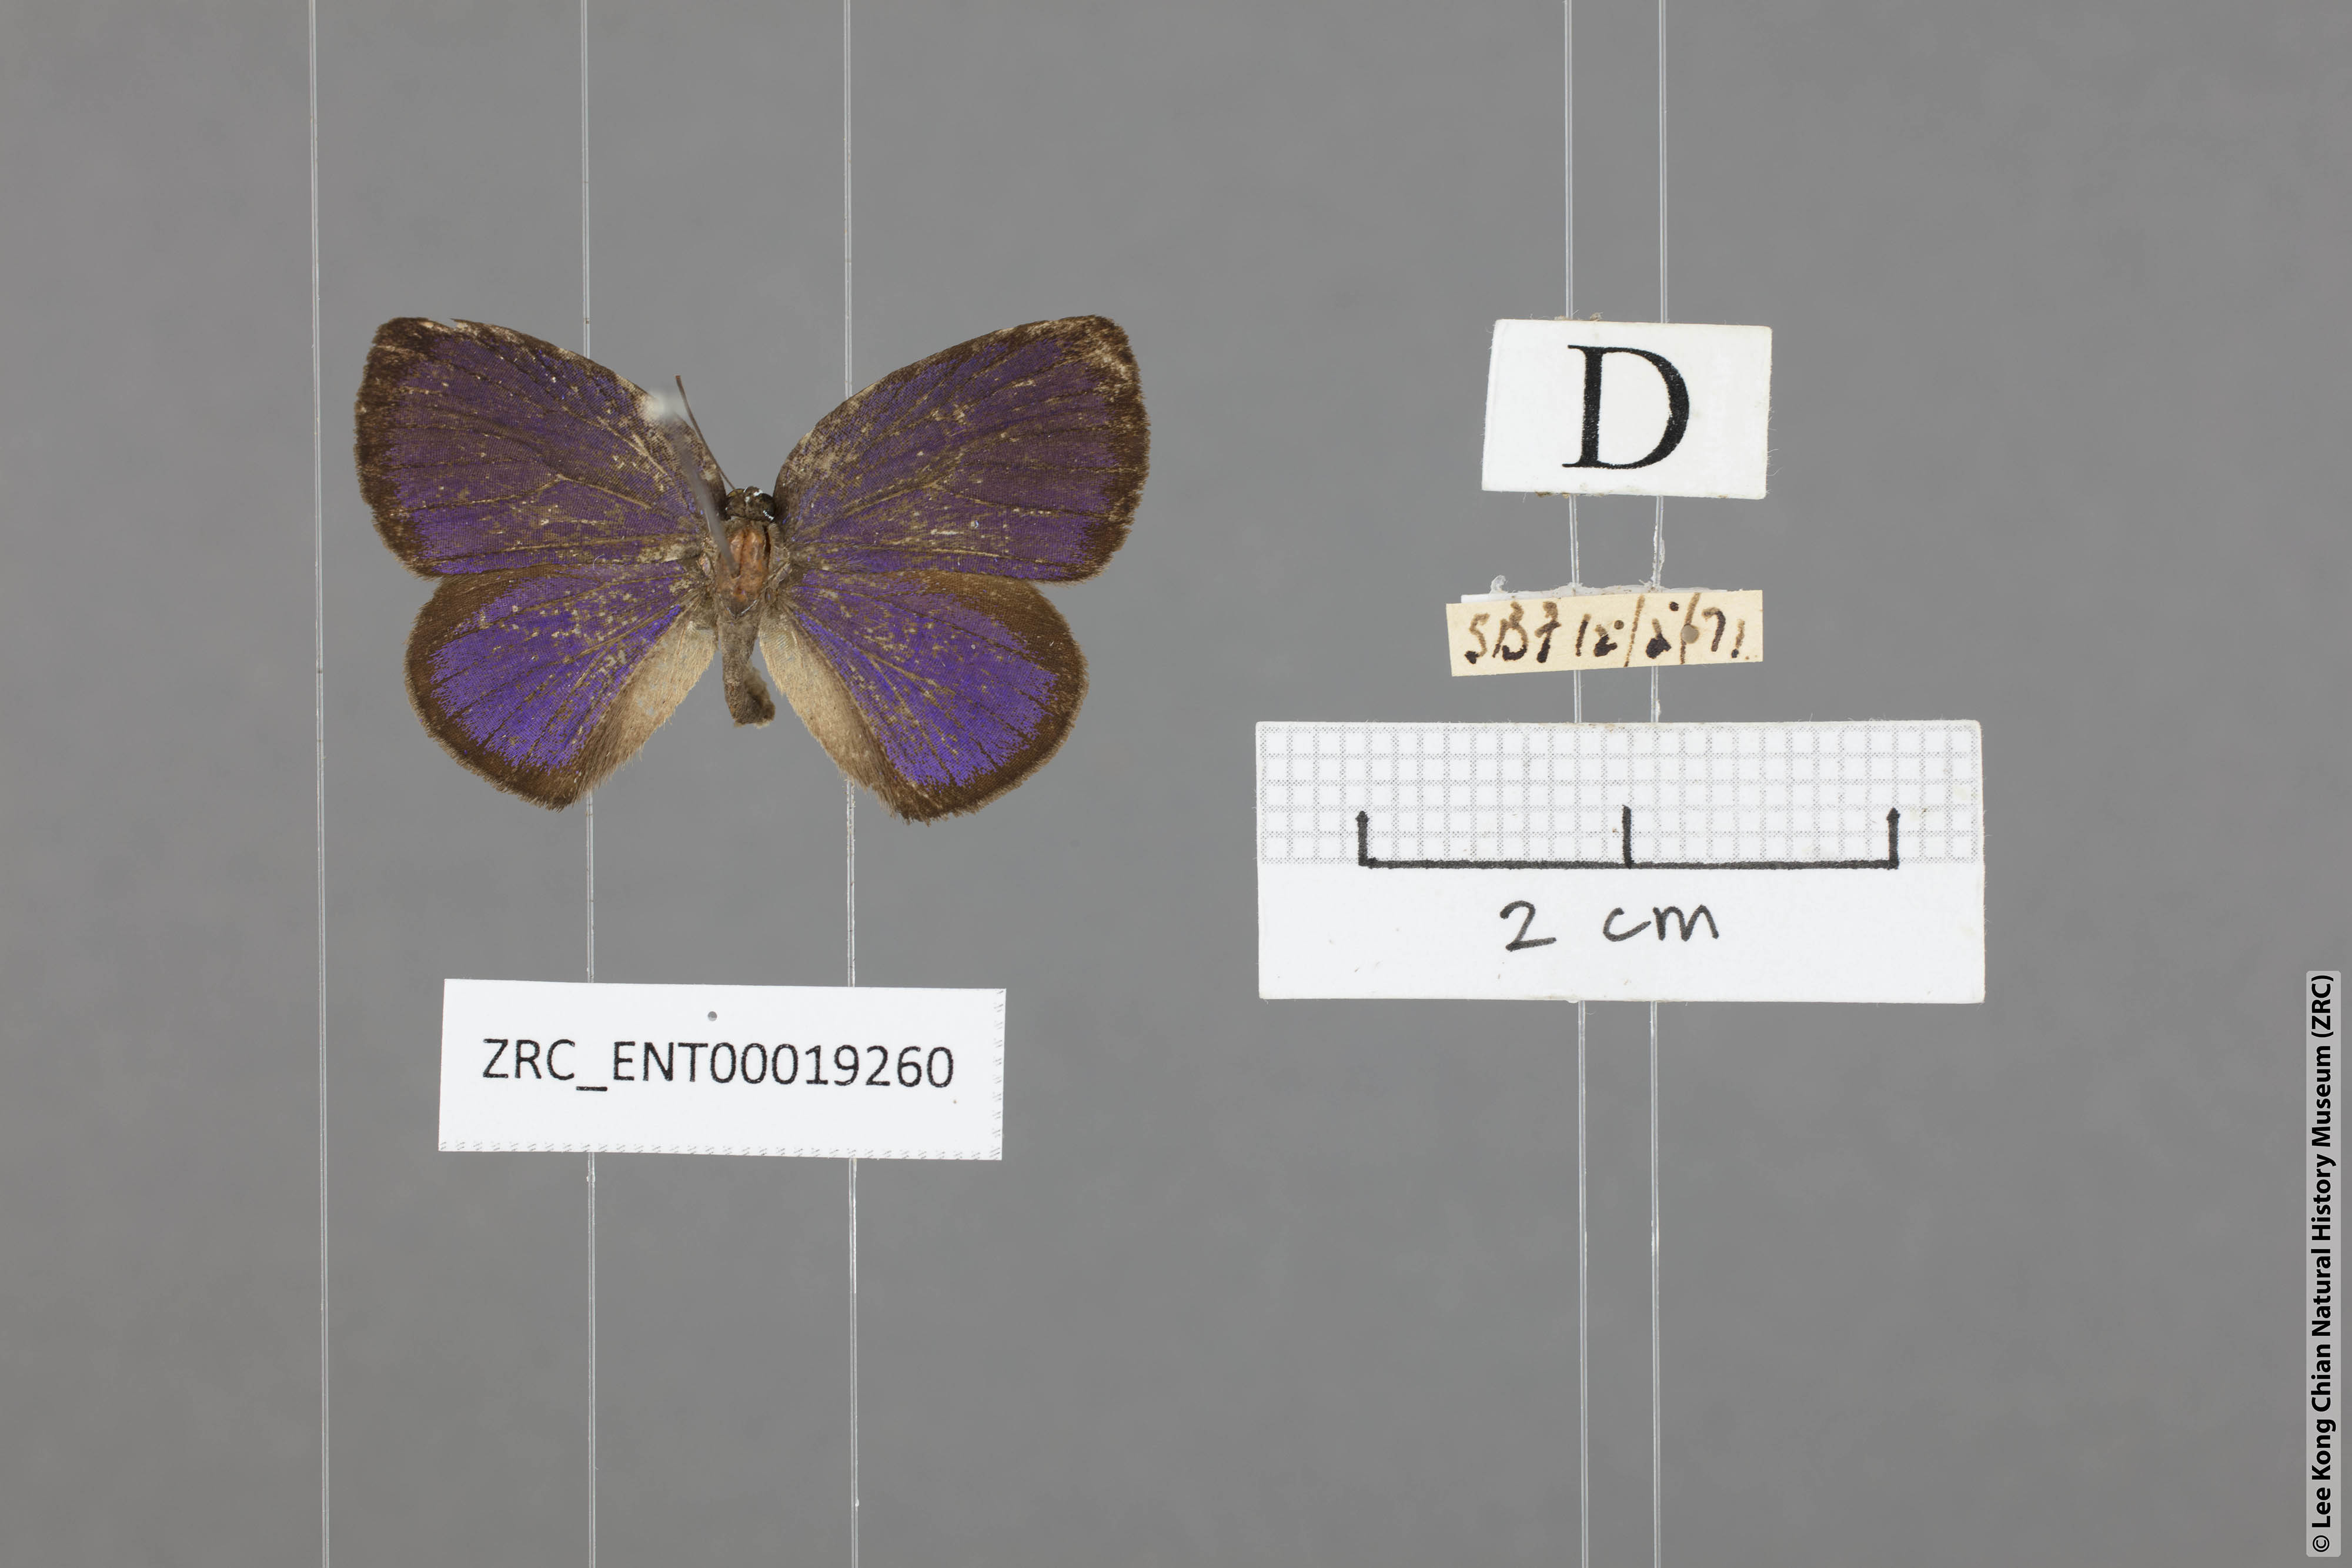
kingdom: Animalia
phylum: Arthropoda
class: Insecta
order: Lepidoptera
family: Lycaenidae
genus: Arhopala
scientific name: Arhopala avathina
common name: Lunulate yellow oakblue
